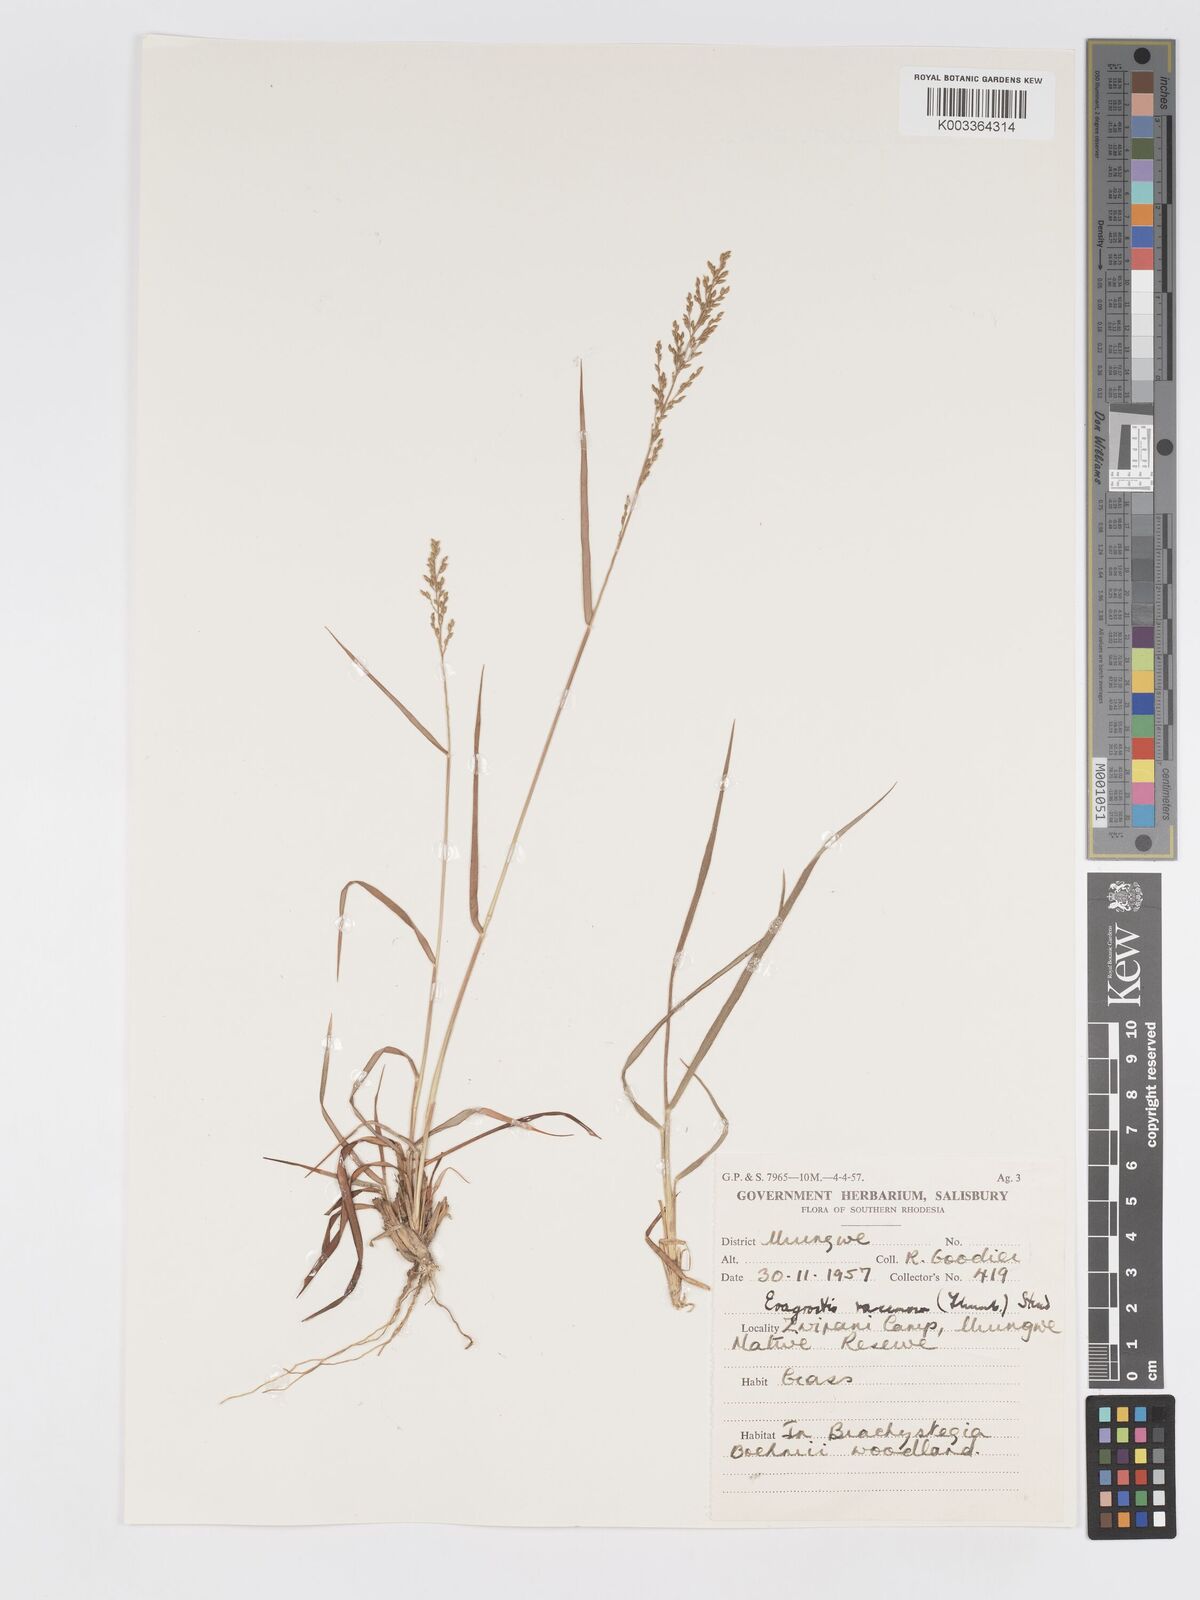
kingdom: Plantae
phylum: Tracheophyta
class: Liliopsida
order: Poales
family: Poaceae
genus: Eragrostis
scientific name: Eragrostis racemosa
